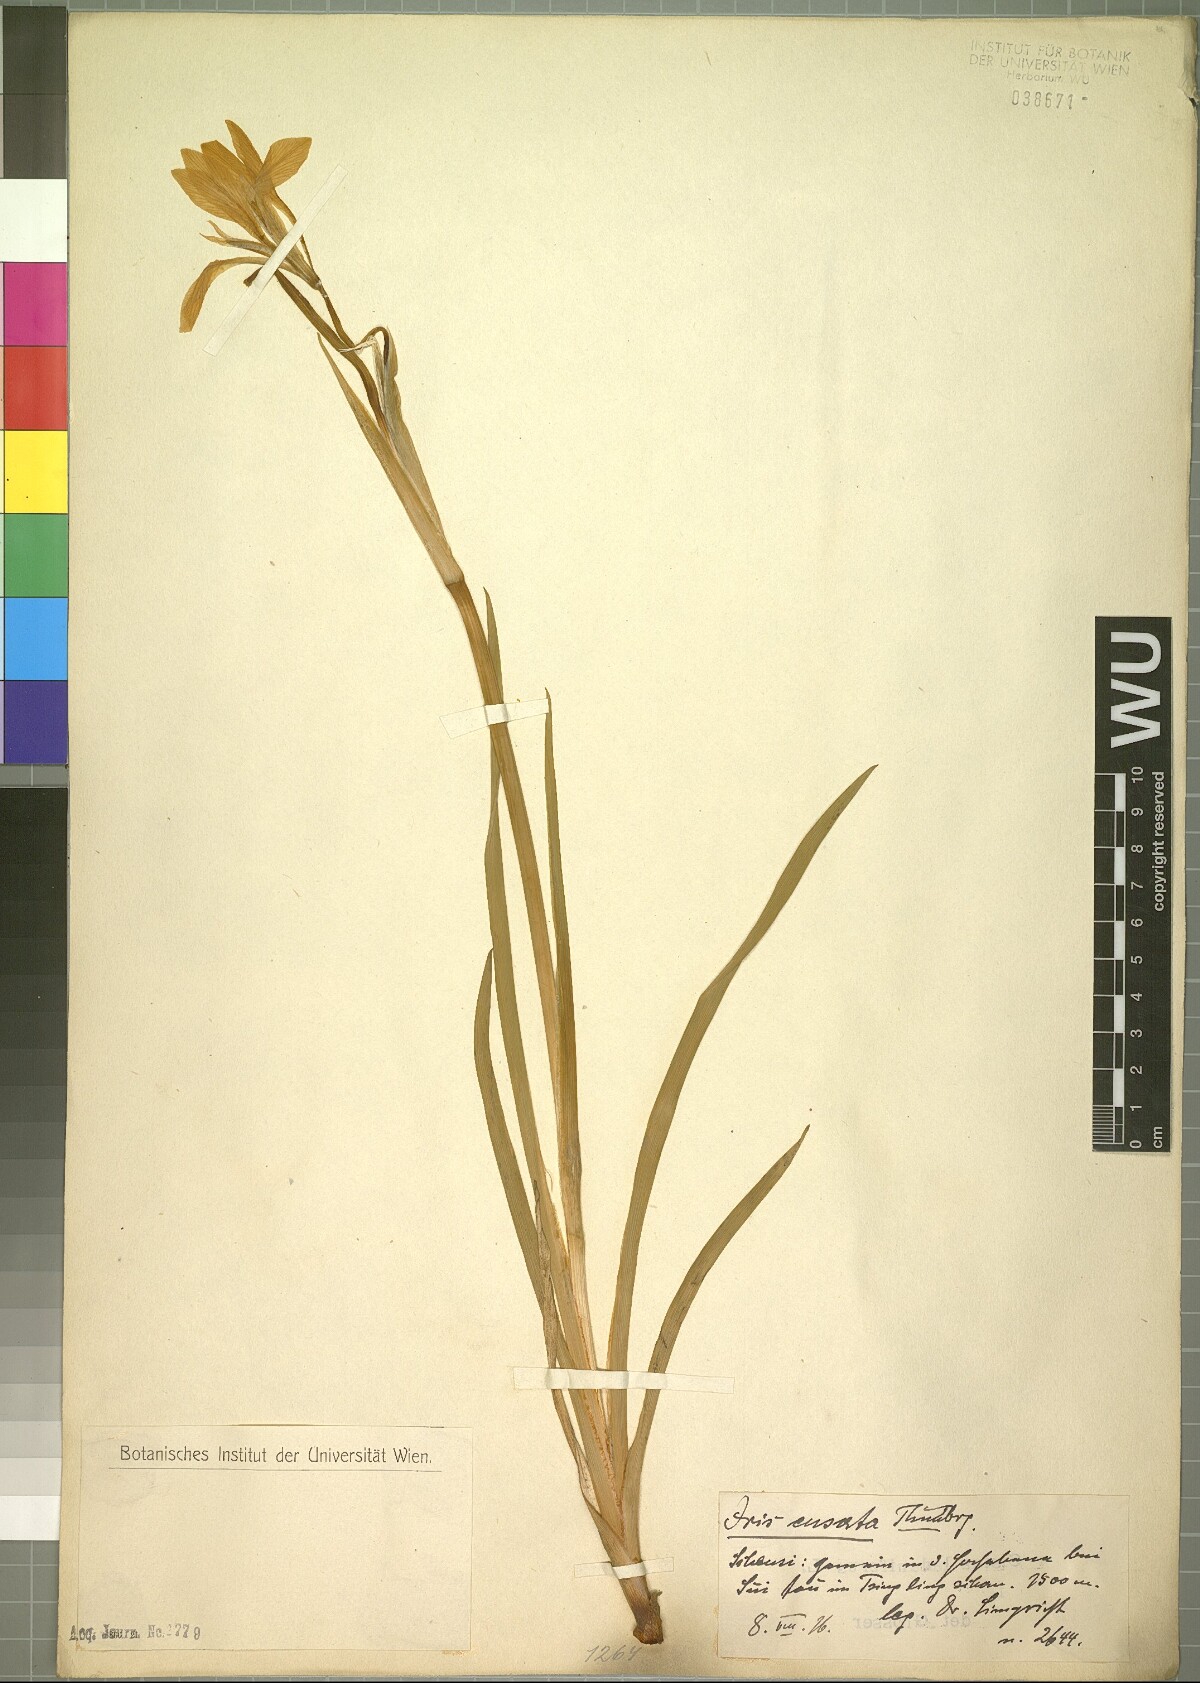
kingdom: Plantae
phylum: Tracheophyta
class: Liliopsida
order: Asparagales
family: Iridaceae
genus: Iris
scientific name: Iris ensata
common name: Beaked iris
